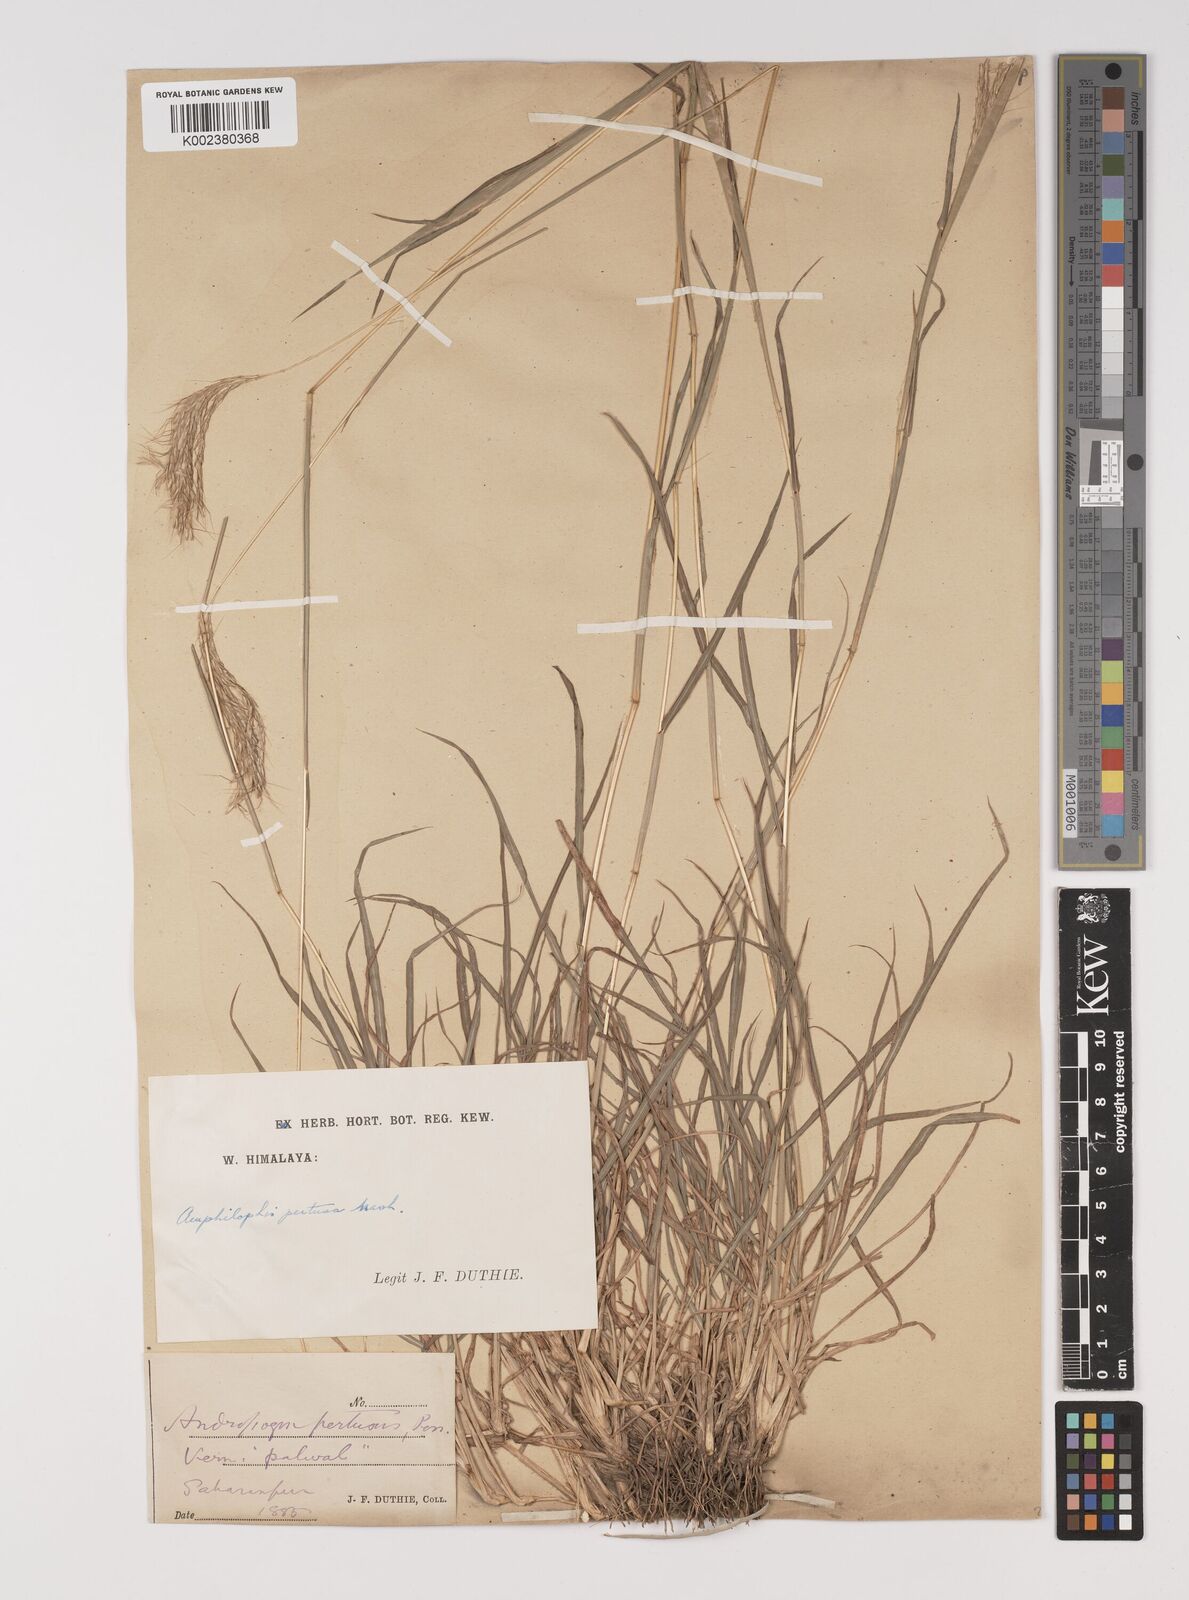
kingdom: Plantae
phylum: Tracheophyta
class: Liliopsida
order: Poales
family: Poaceae
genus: Bothriochloa
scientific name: Bothriochloa pertusa
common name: Pitted beardgrass
